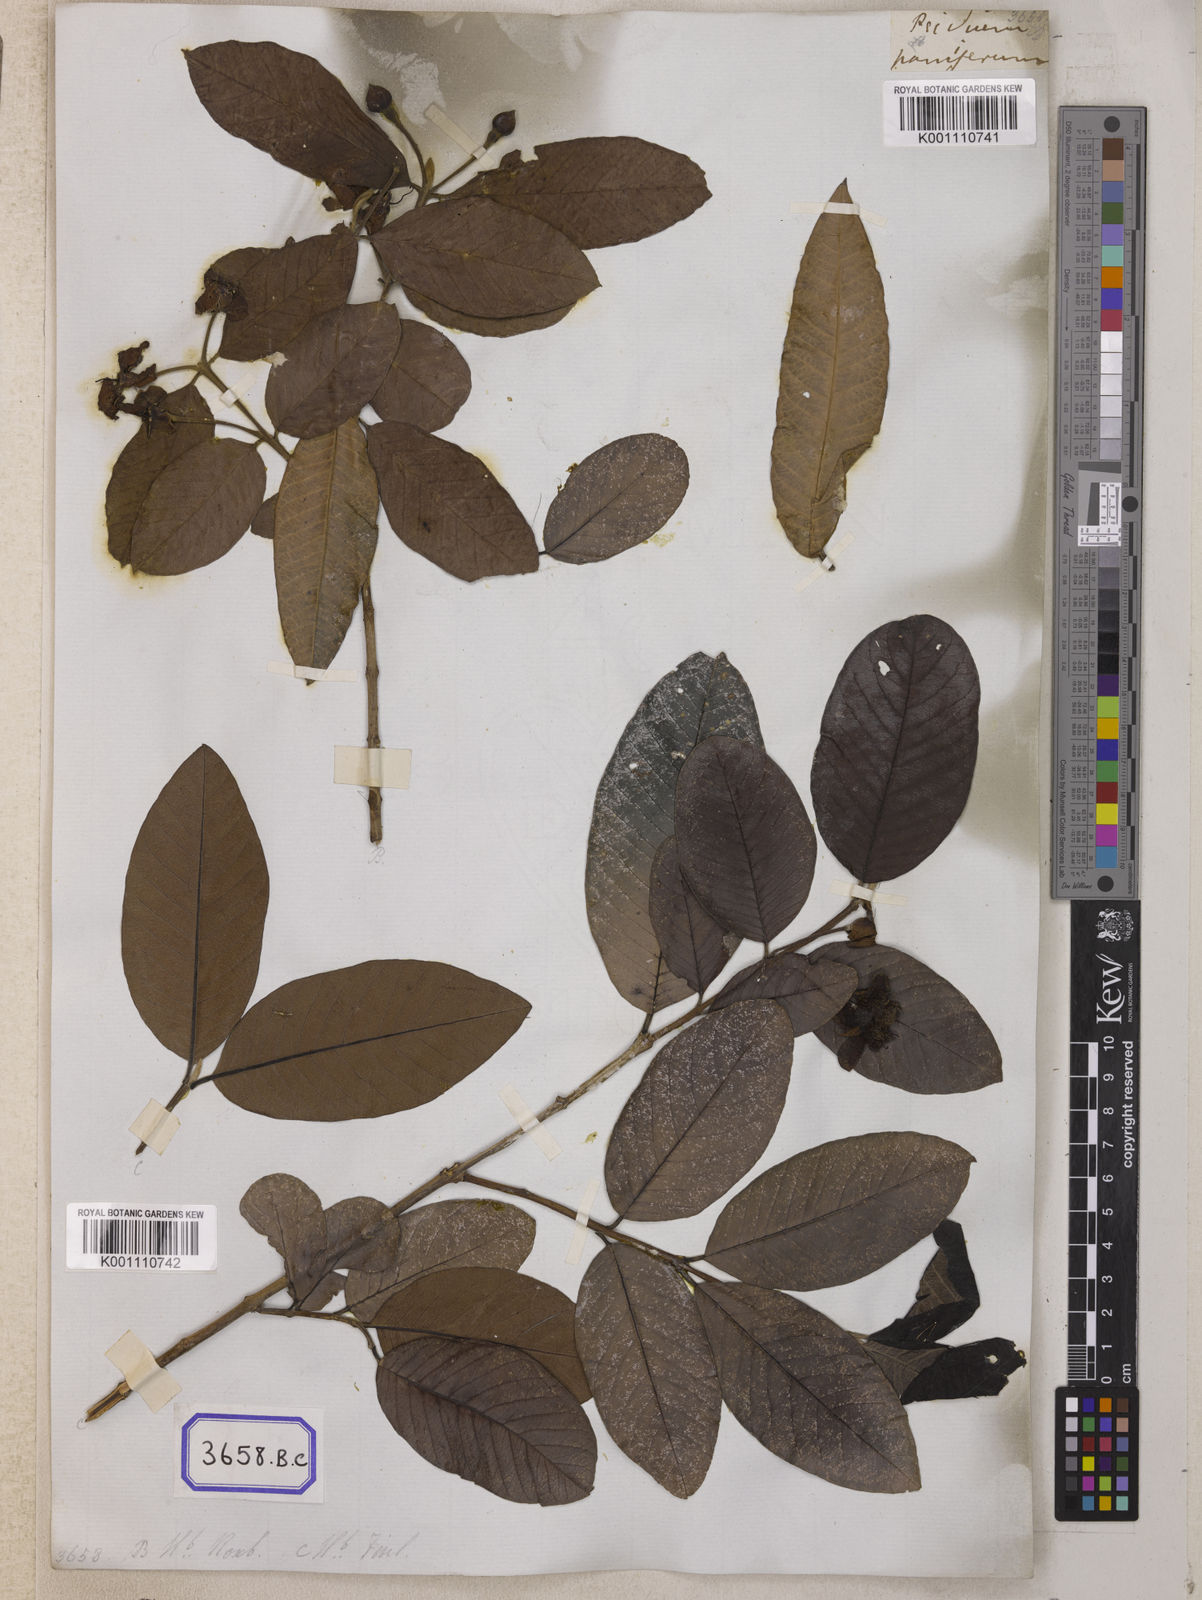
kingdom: Plantae
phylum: Tracheophyta
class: Magnoliopsida
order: Myrtales
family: Myrtaceae
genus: Psidium
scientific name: Psidium guajava
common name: Guava
